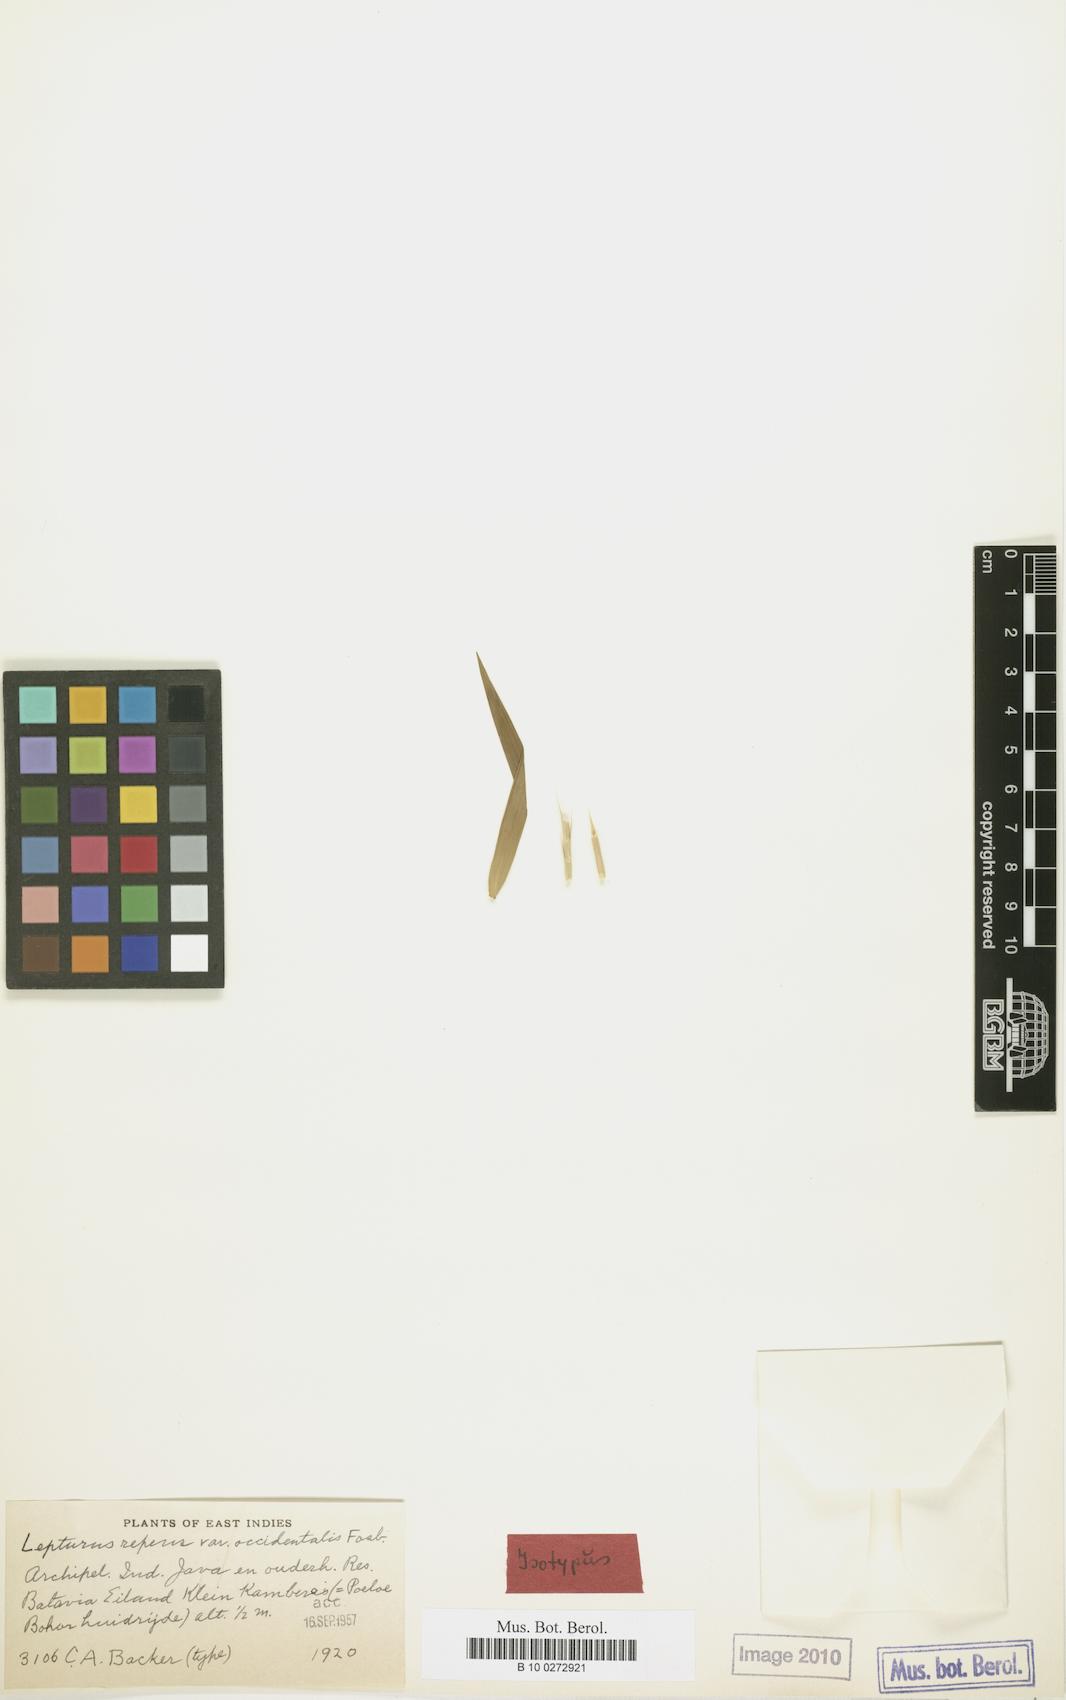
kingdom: Plantae
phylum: Tracheophyta
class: Liliopsida
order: Poales
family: Poaceae
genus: Lepturus
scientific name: Lepturus repens
